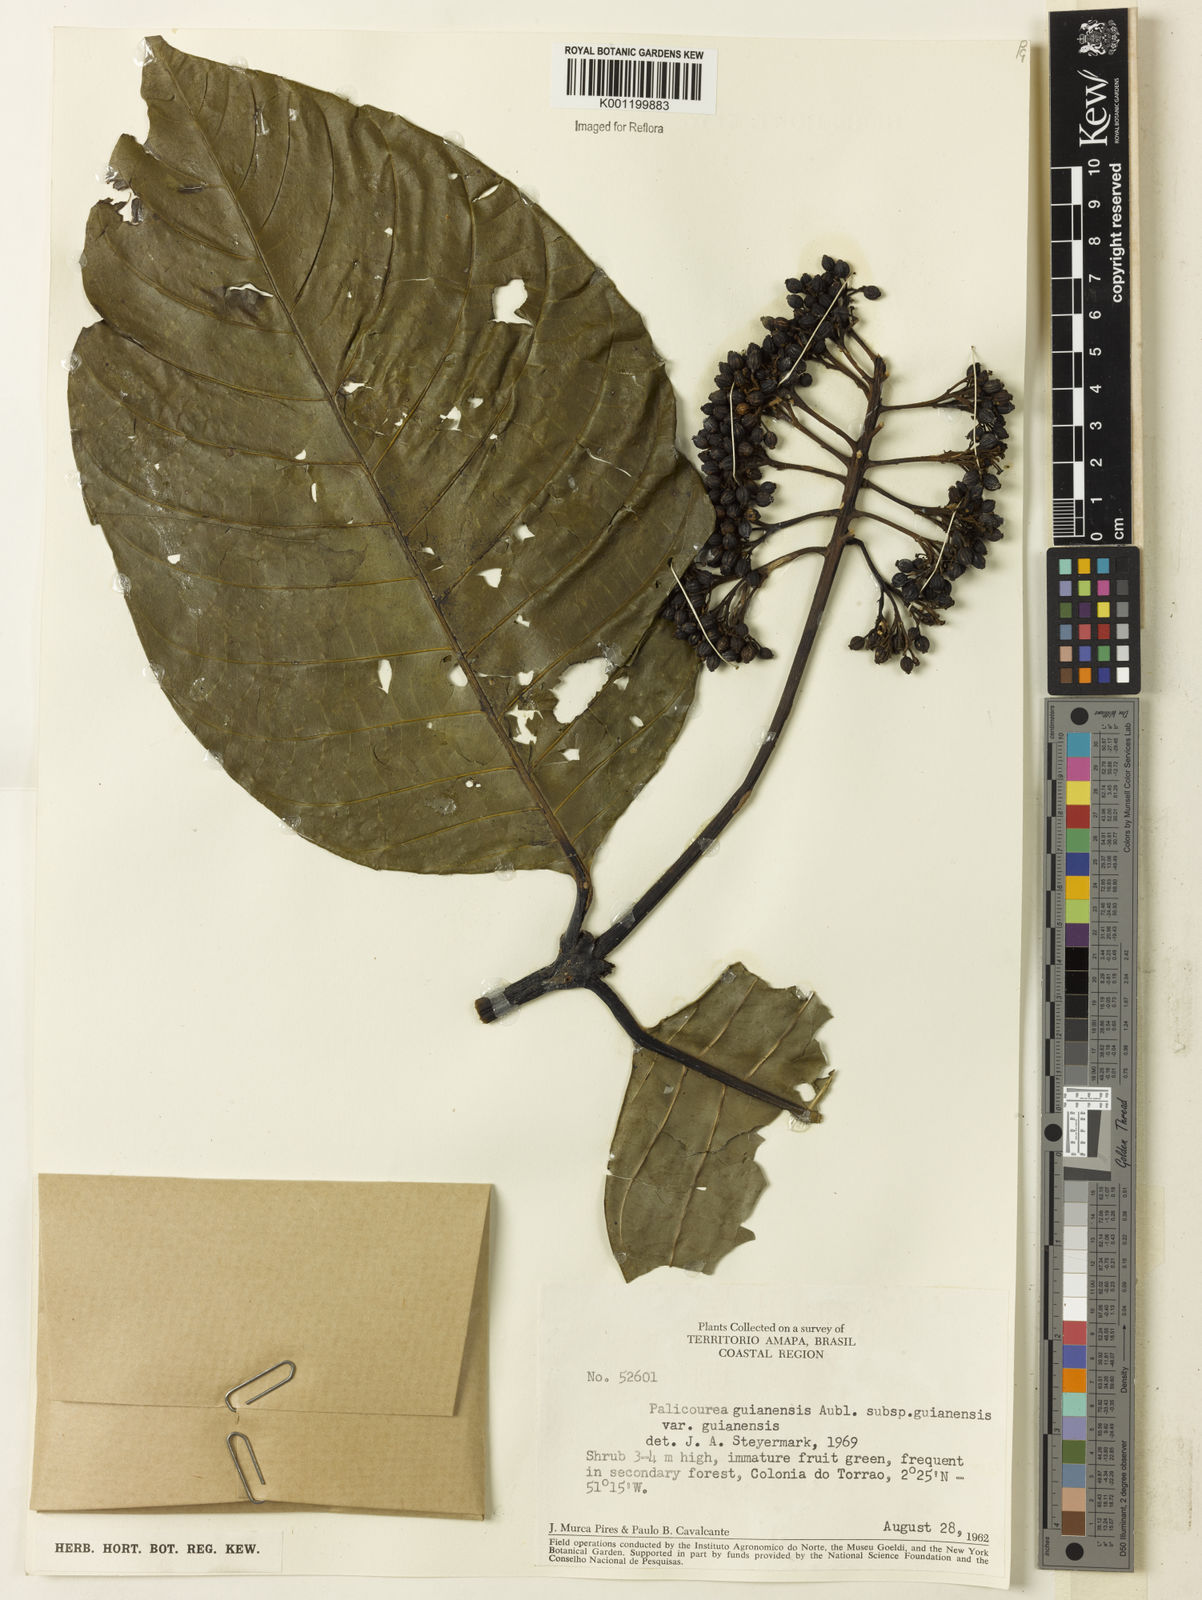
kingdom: Plantae
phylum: Tracheophyta
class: Magnoliopsida
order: Gentianales
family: Rubiaceae
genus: Palicourea
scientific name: Palicourea guianensis
